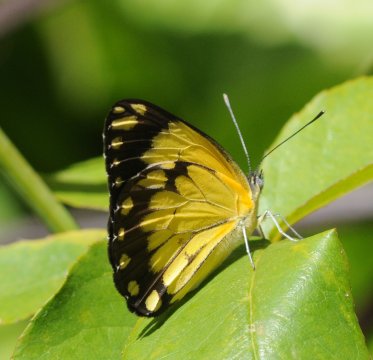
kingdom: Animalia
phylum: Arthropoda
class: Insecta
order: Lepidoptera
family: Pieridae
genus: Belenois
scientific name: Belenois creona
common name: African Caper
